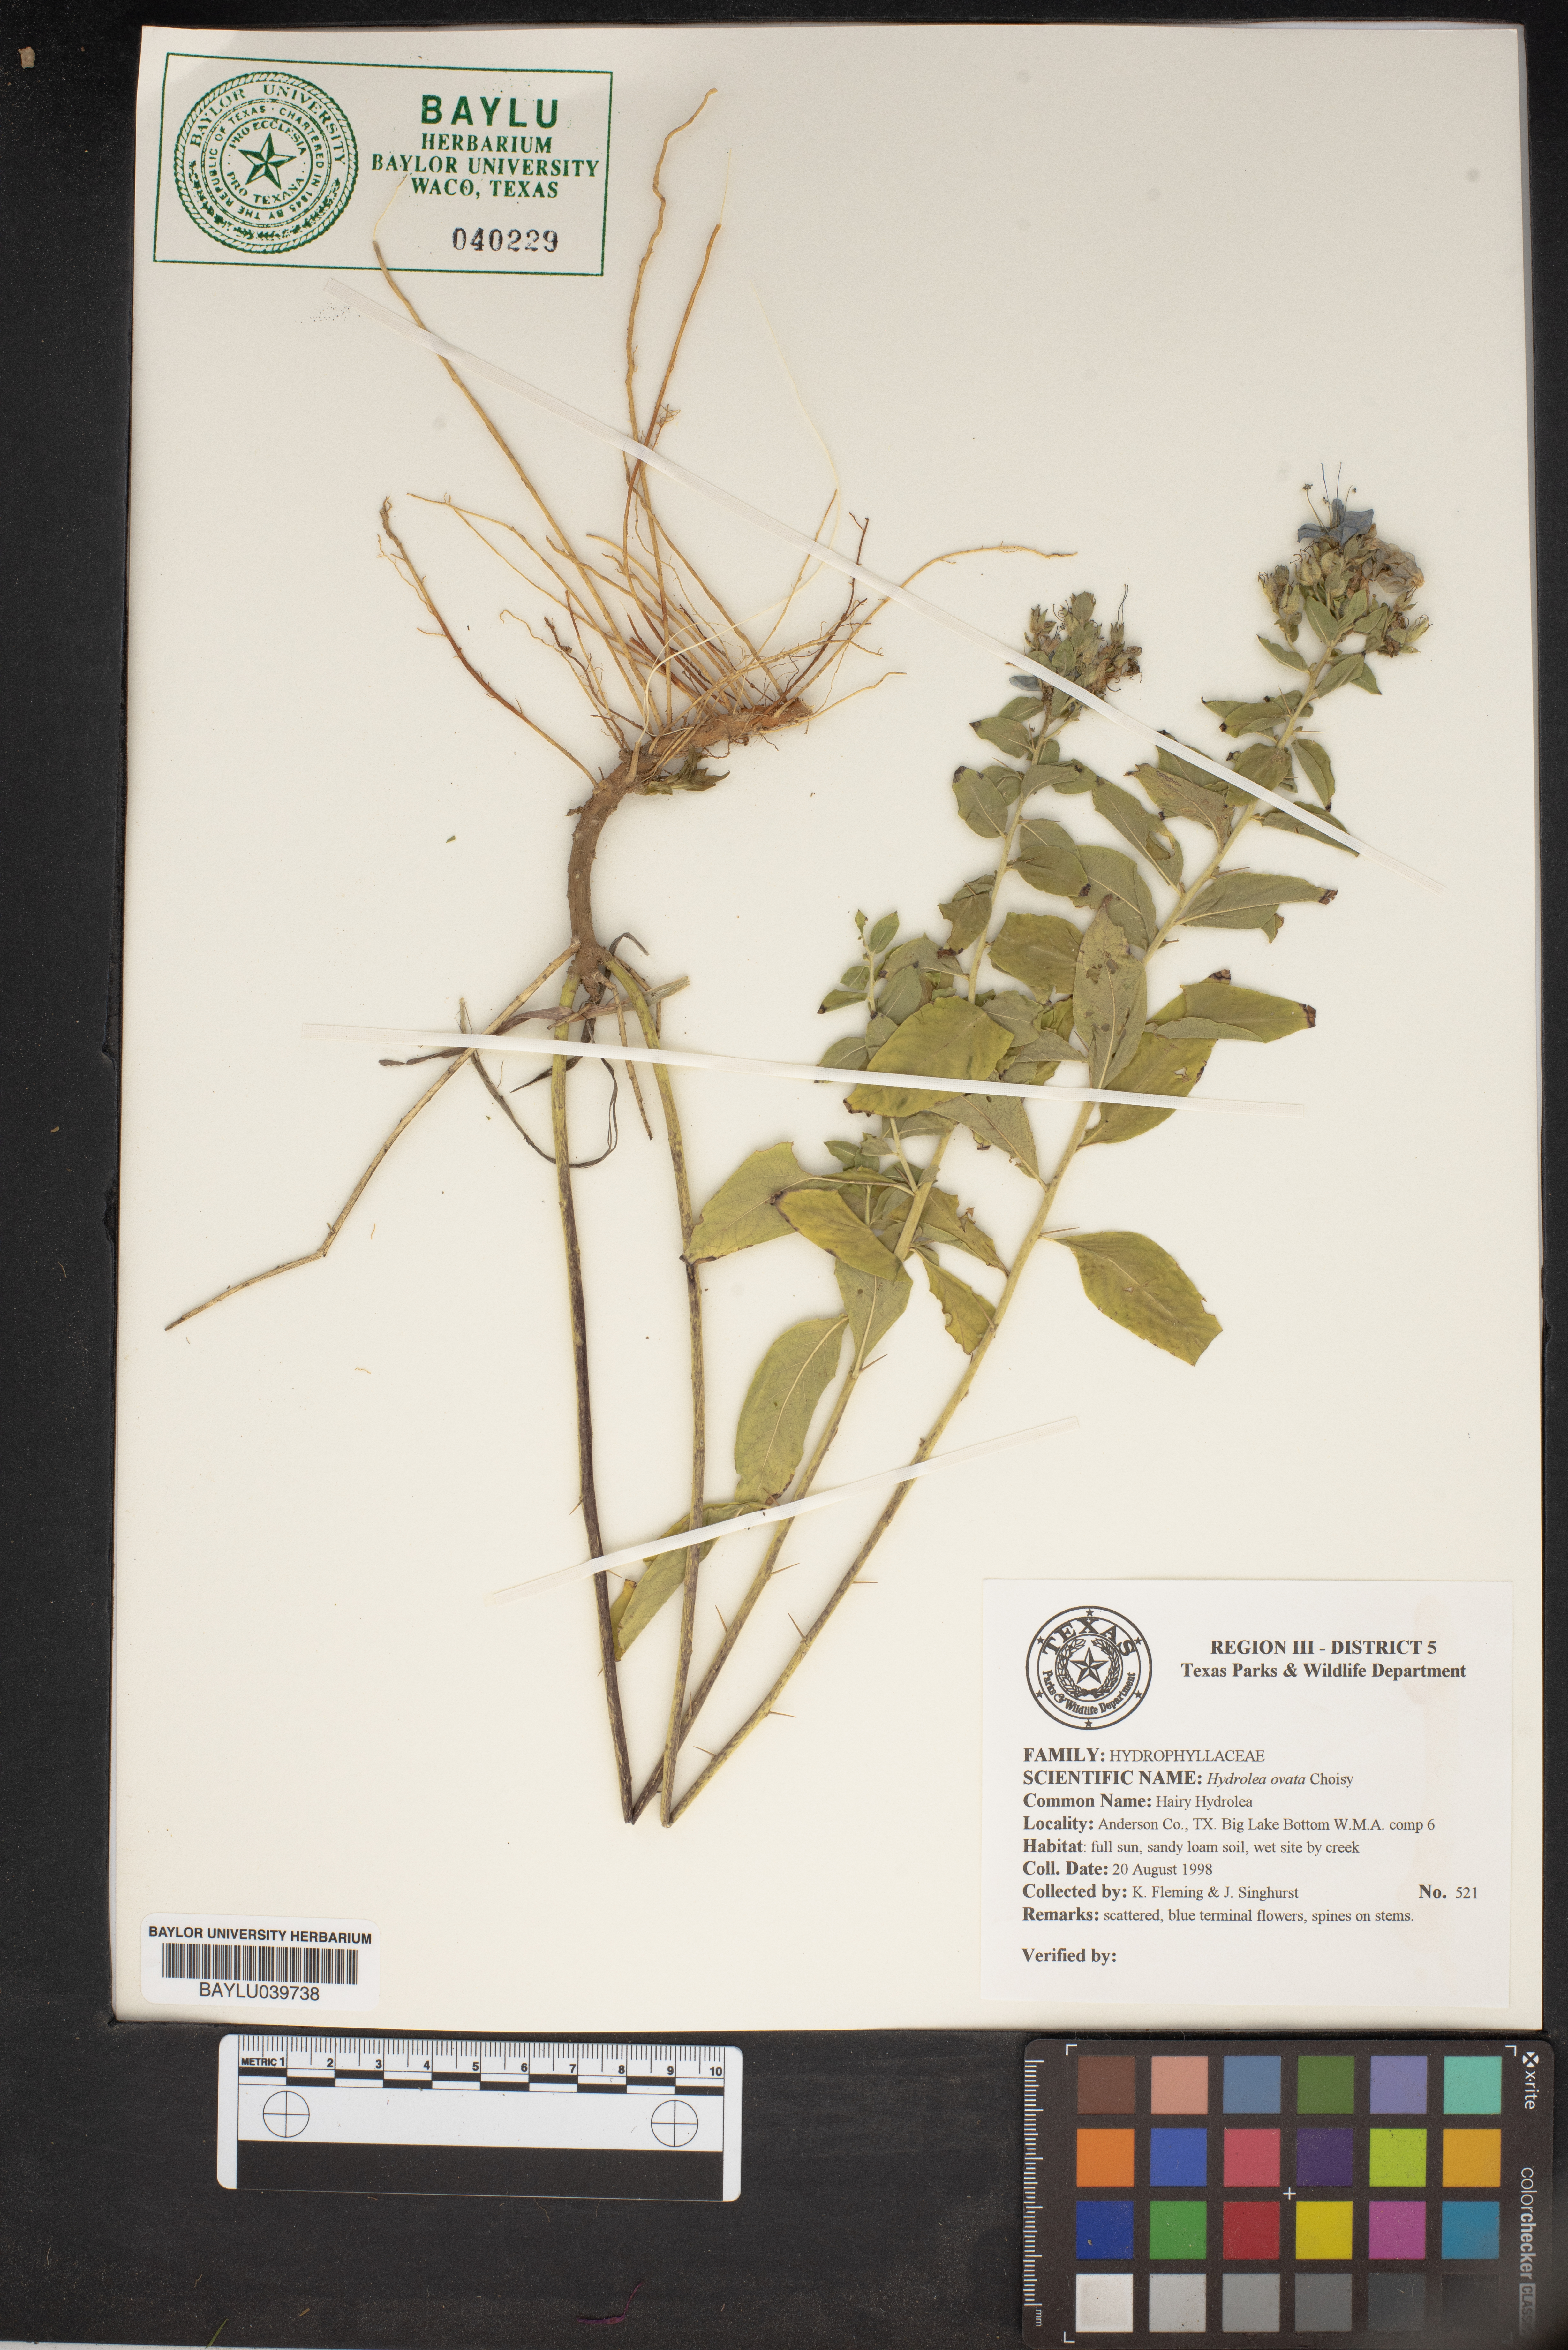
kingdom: Plantae
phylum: Tracheophyta
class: Magnoliopsida
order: Solanales
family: Hydroleaceae
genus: Hydrolea
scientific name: Hydrolea ovata
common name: Ovate false fiddleleaf
